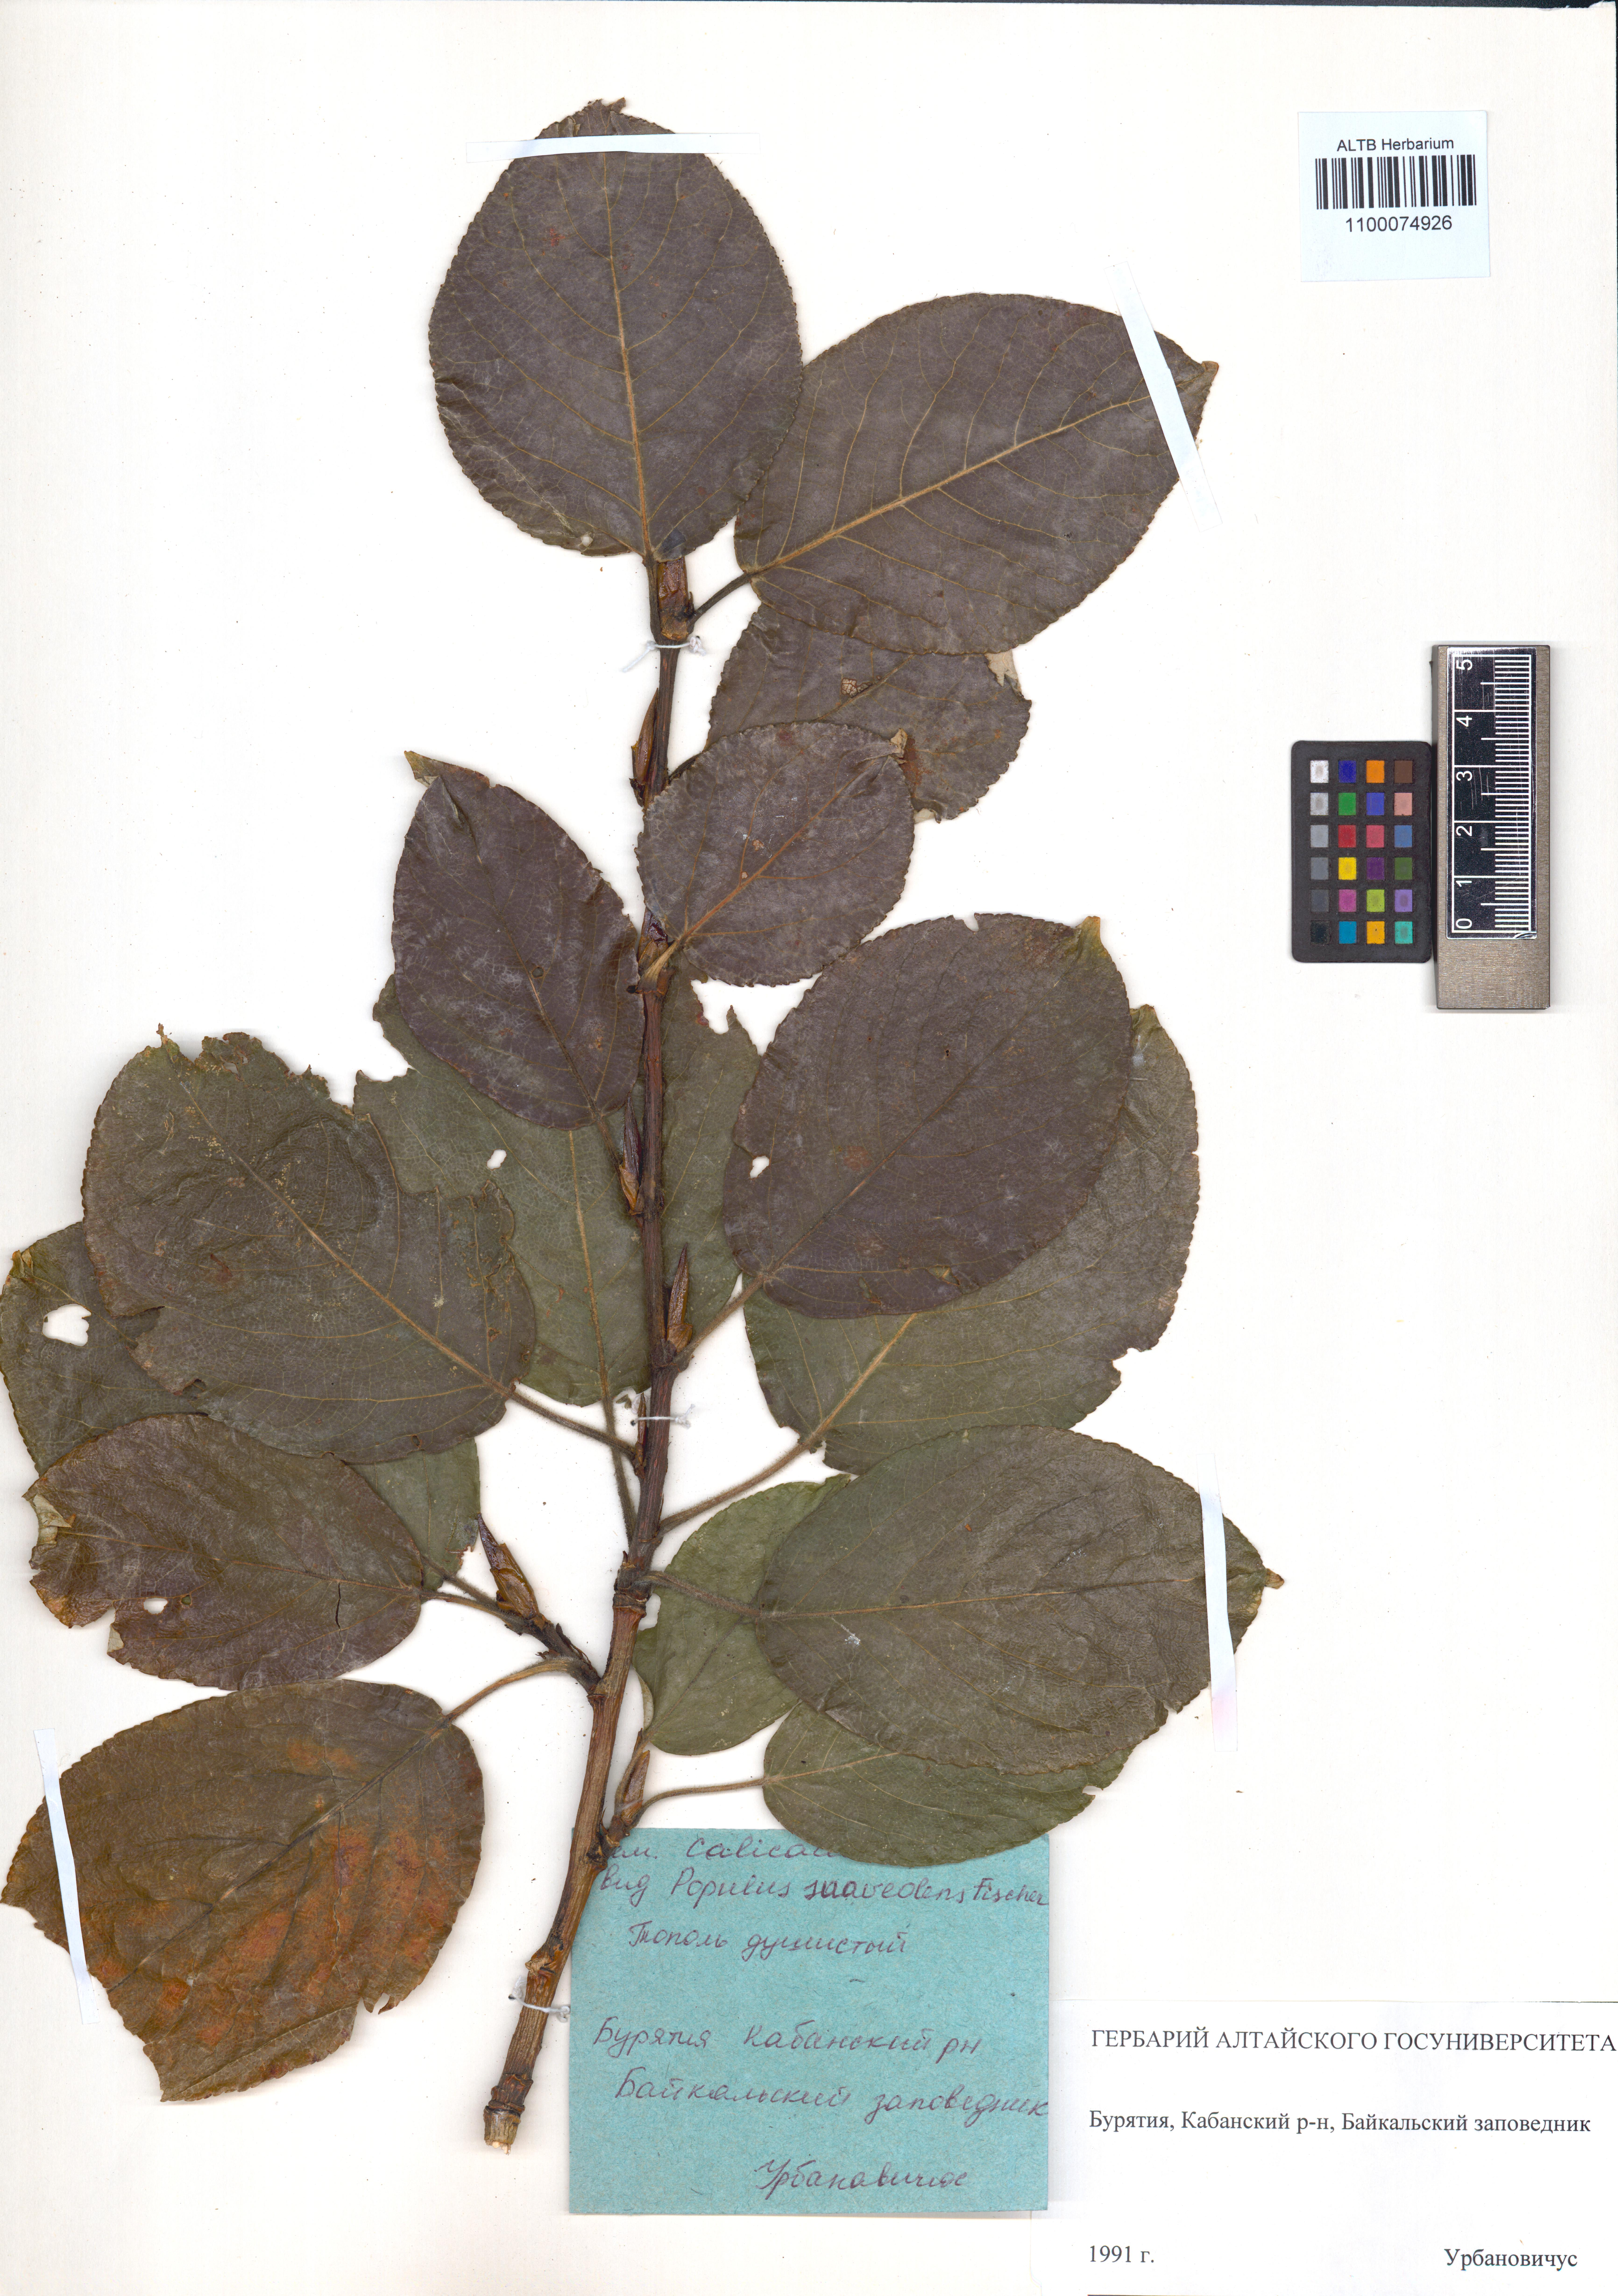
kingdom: Plantae
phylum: Tracheophyta
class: Magnoliopsida
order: Malpighiales
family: Salicaceae
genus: Populus
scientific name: Populus suaveolens
